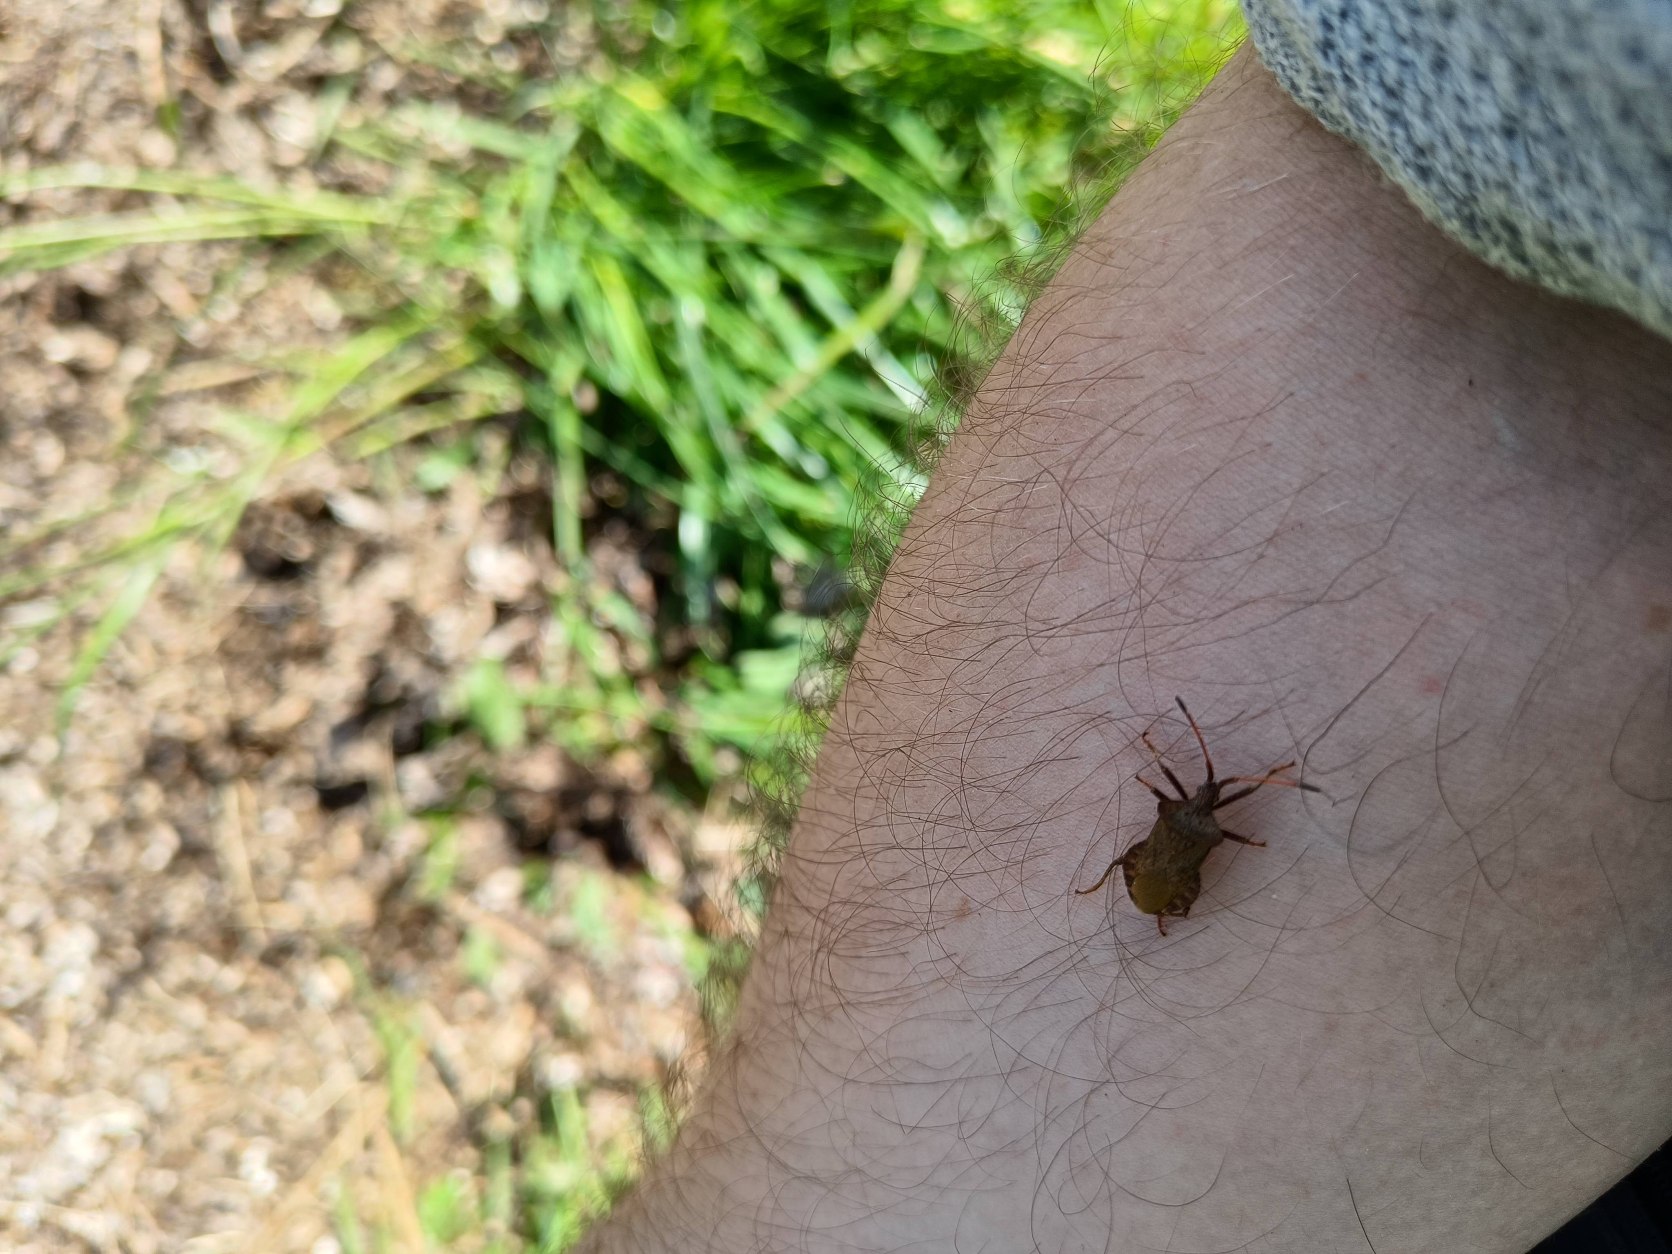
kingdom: Animalia
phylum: Arthropoda
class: Insecta
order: Hemiptera
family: Coreidae
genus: Coreus
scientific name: Coreus marginatus
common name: Skræppetæge
